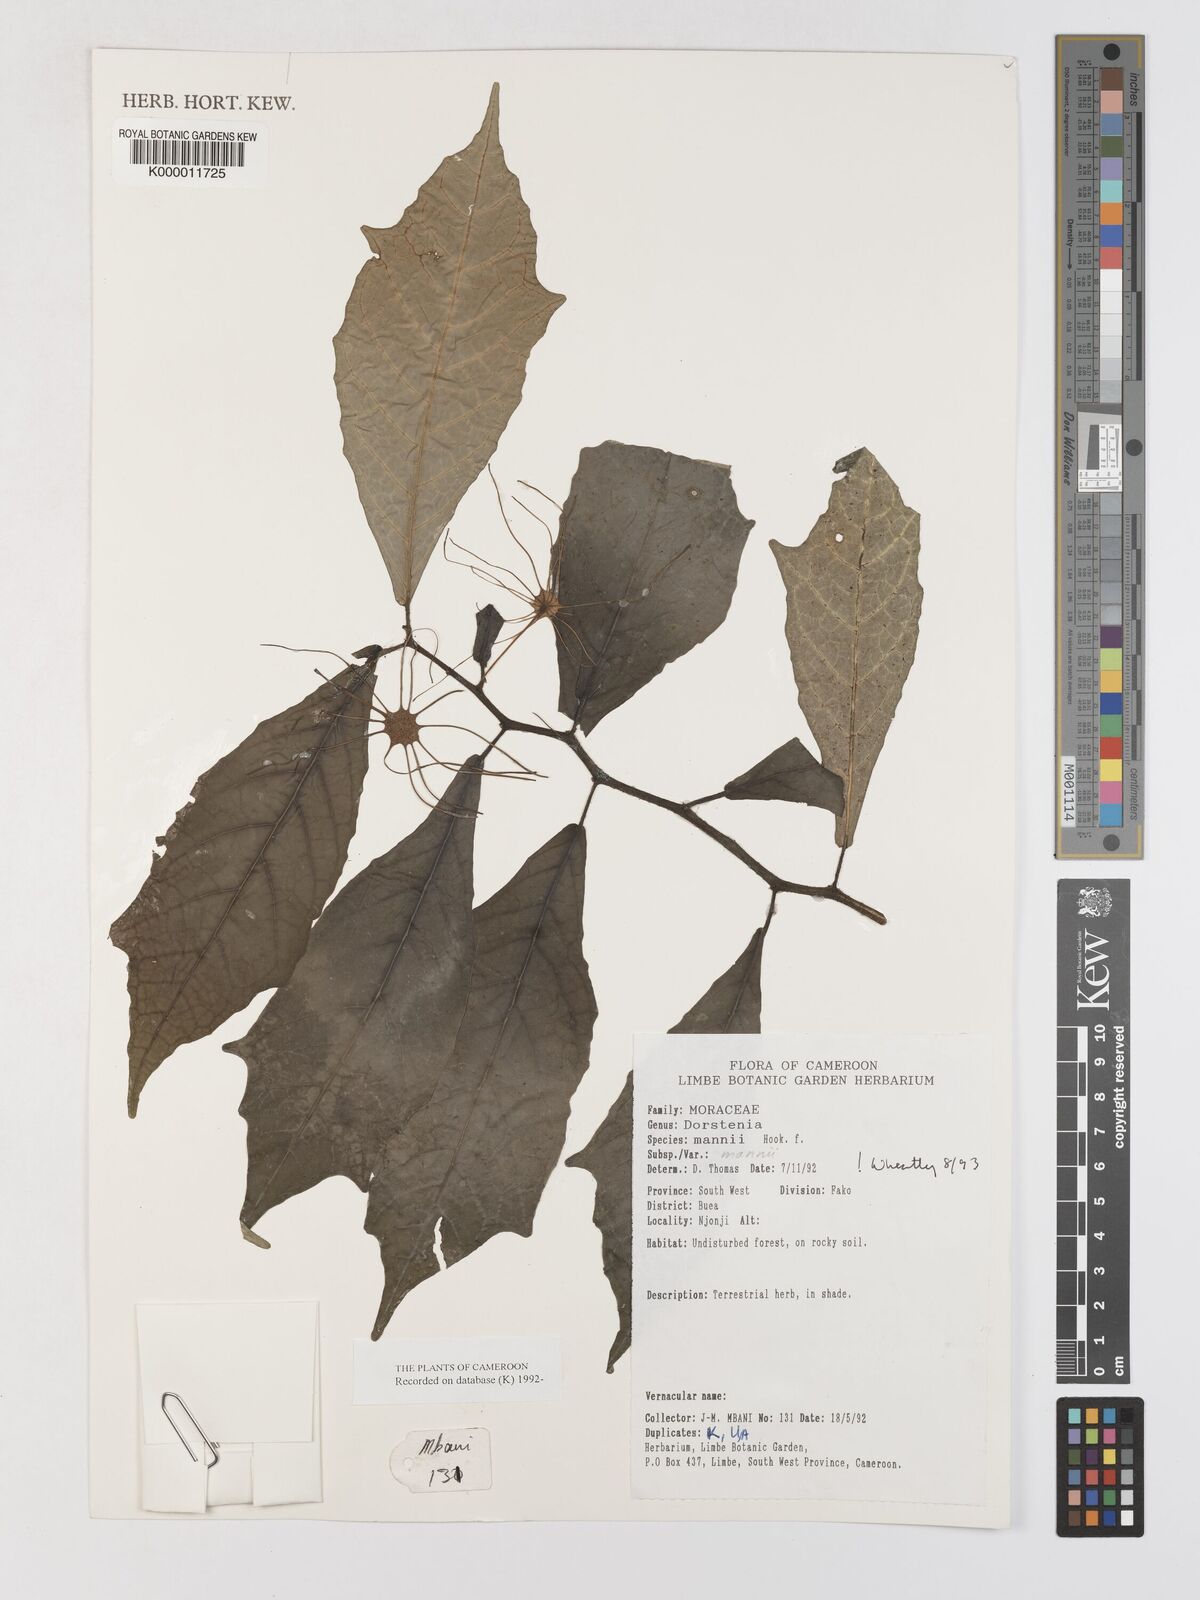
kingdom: Plantae
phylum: Tracheophyta
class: Magnoliopsida
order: Rosales
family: Moraceae
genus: Dorstenia
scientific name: Dorstenia mannii
